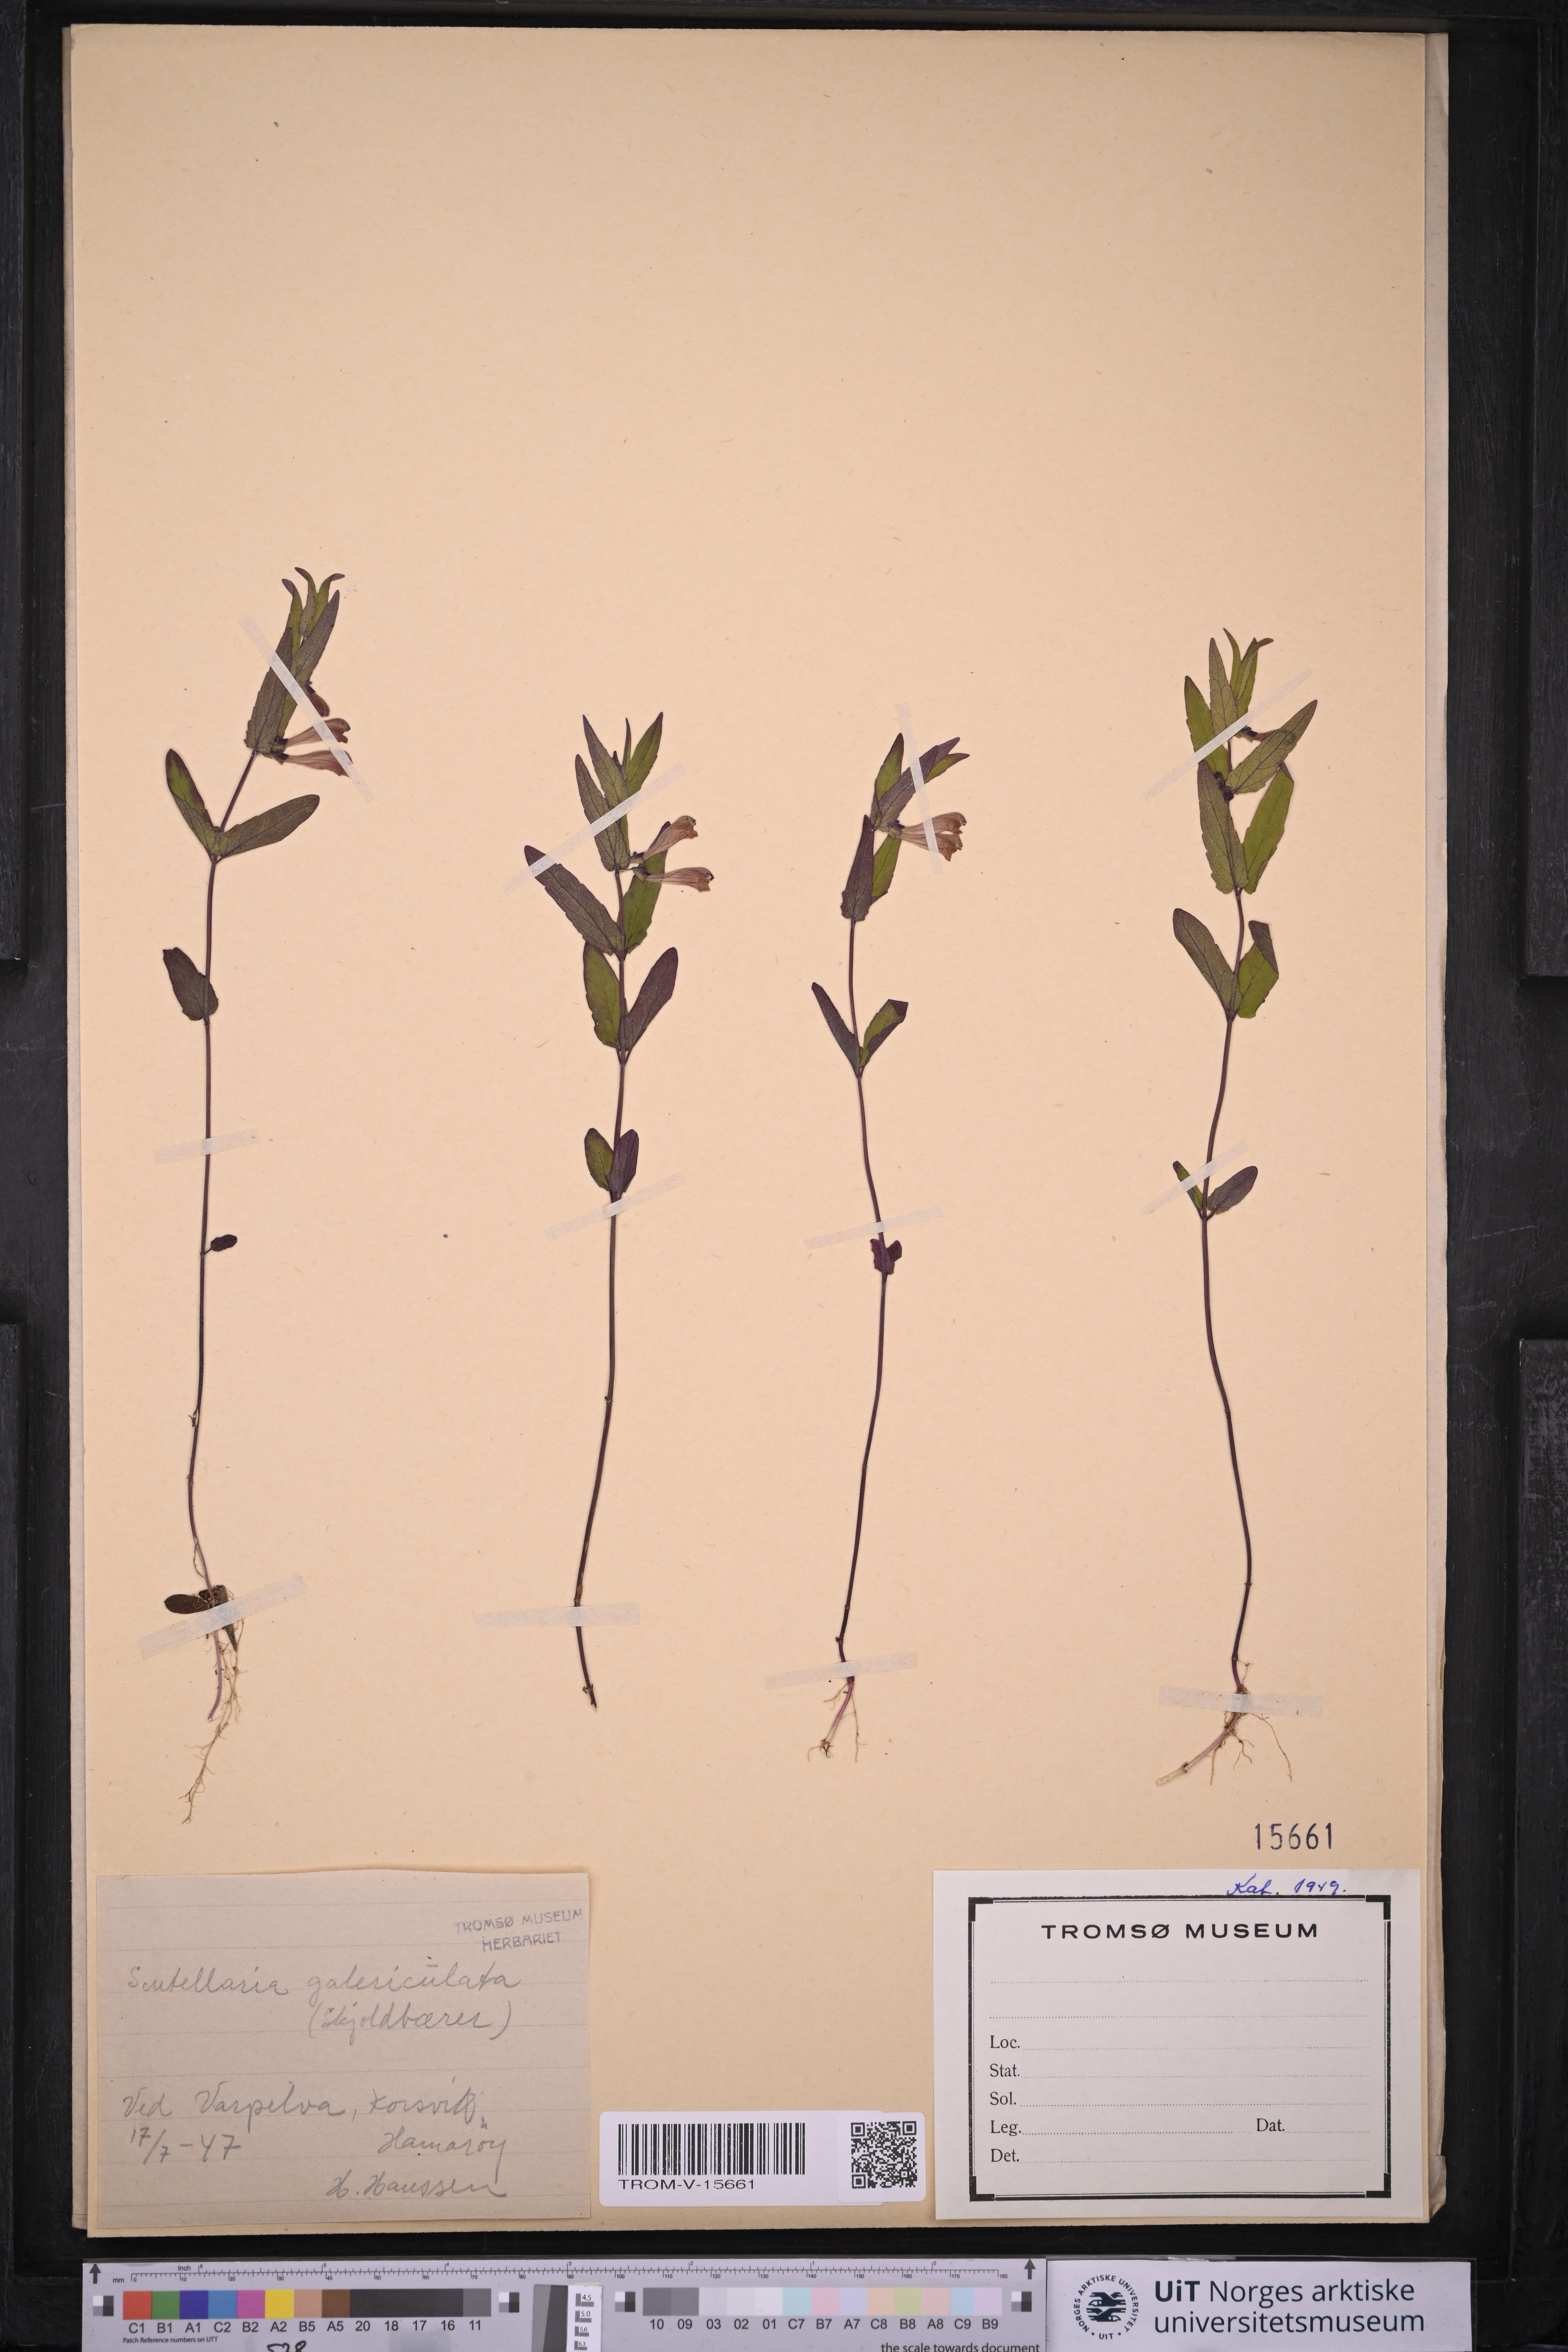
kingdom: Plantae
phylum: Tracheophyta
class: Magnoliopsida
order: Lamiales
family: Lamiaceae
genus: Scutellaria
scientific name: Scutellaria galericulata
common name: Skullcap
